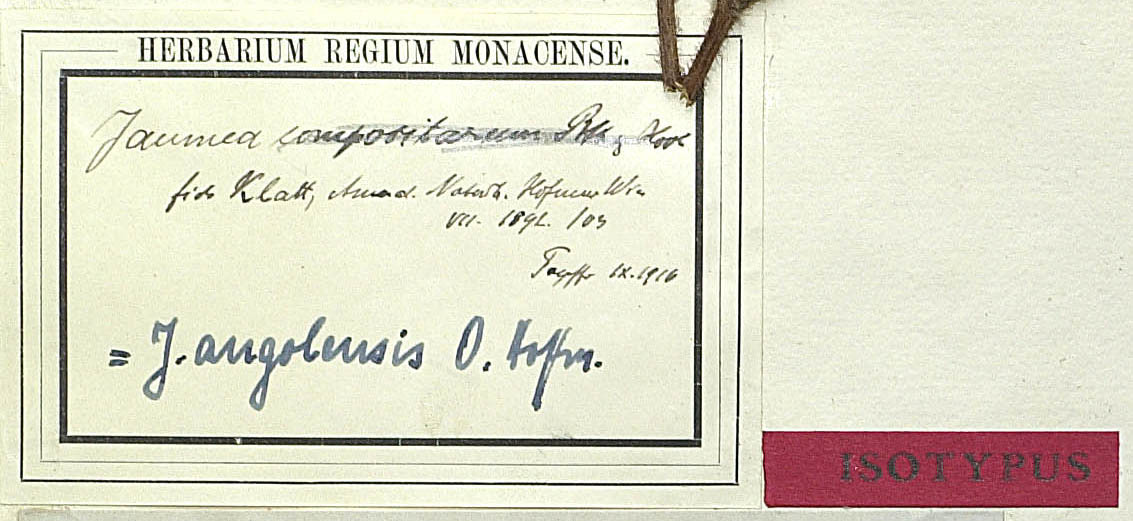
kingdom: Plantae
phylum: Tracheophyta
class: Magnoliopsida
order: Asterales
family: Asteraceae
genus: Hypericophyllum
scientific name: Hypericophyllum angolense
